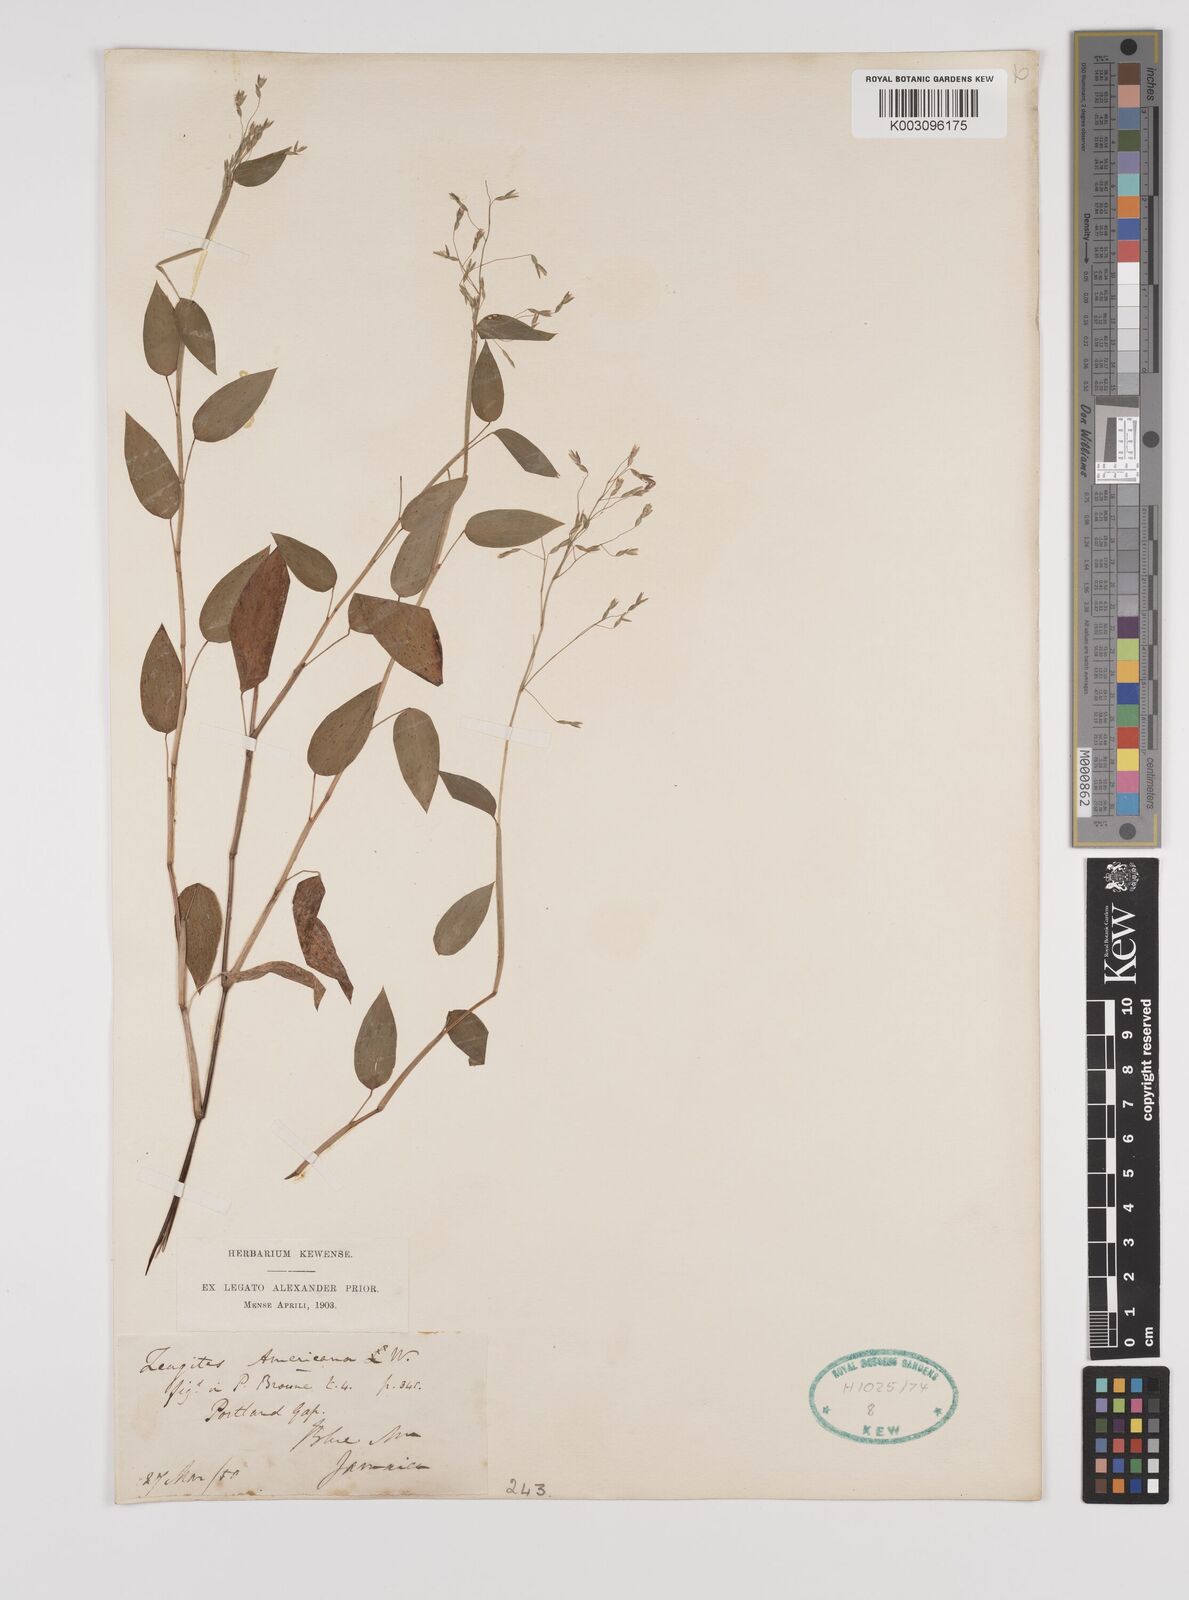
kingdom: Plantae
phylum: Tracheophyta
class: Liliopsida
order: Poales
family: Poaceae
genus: Zeugites
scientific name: Zeugites americanus
